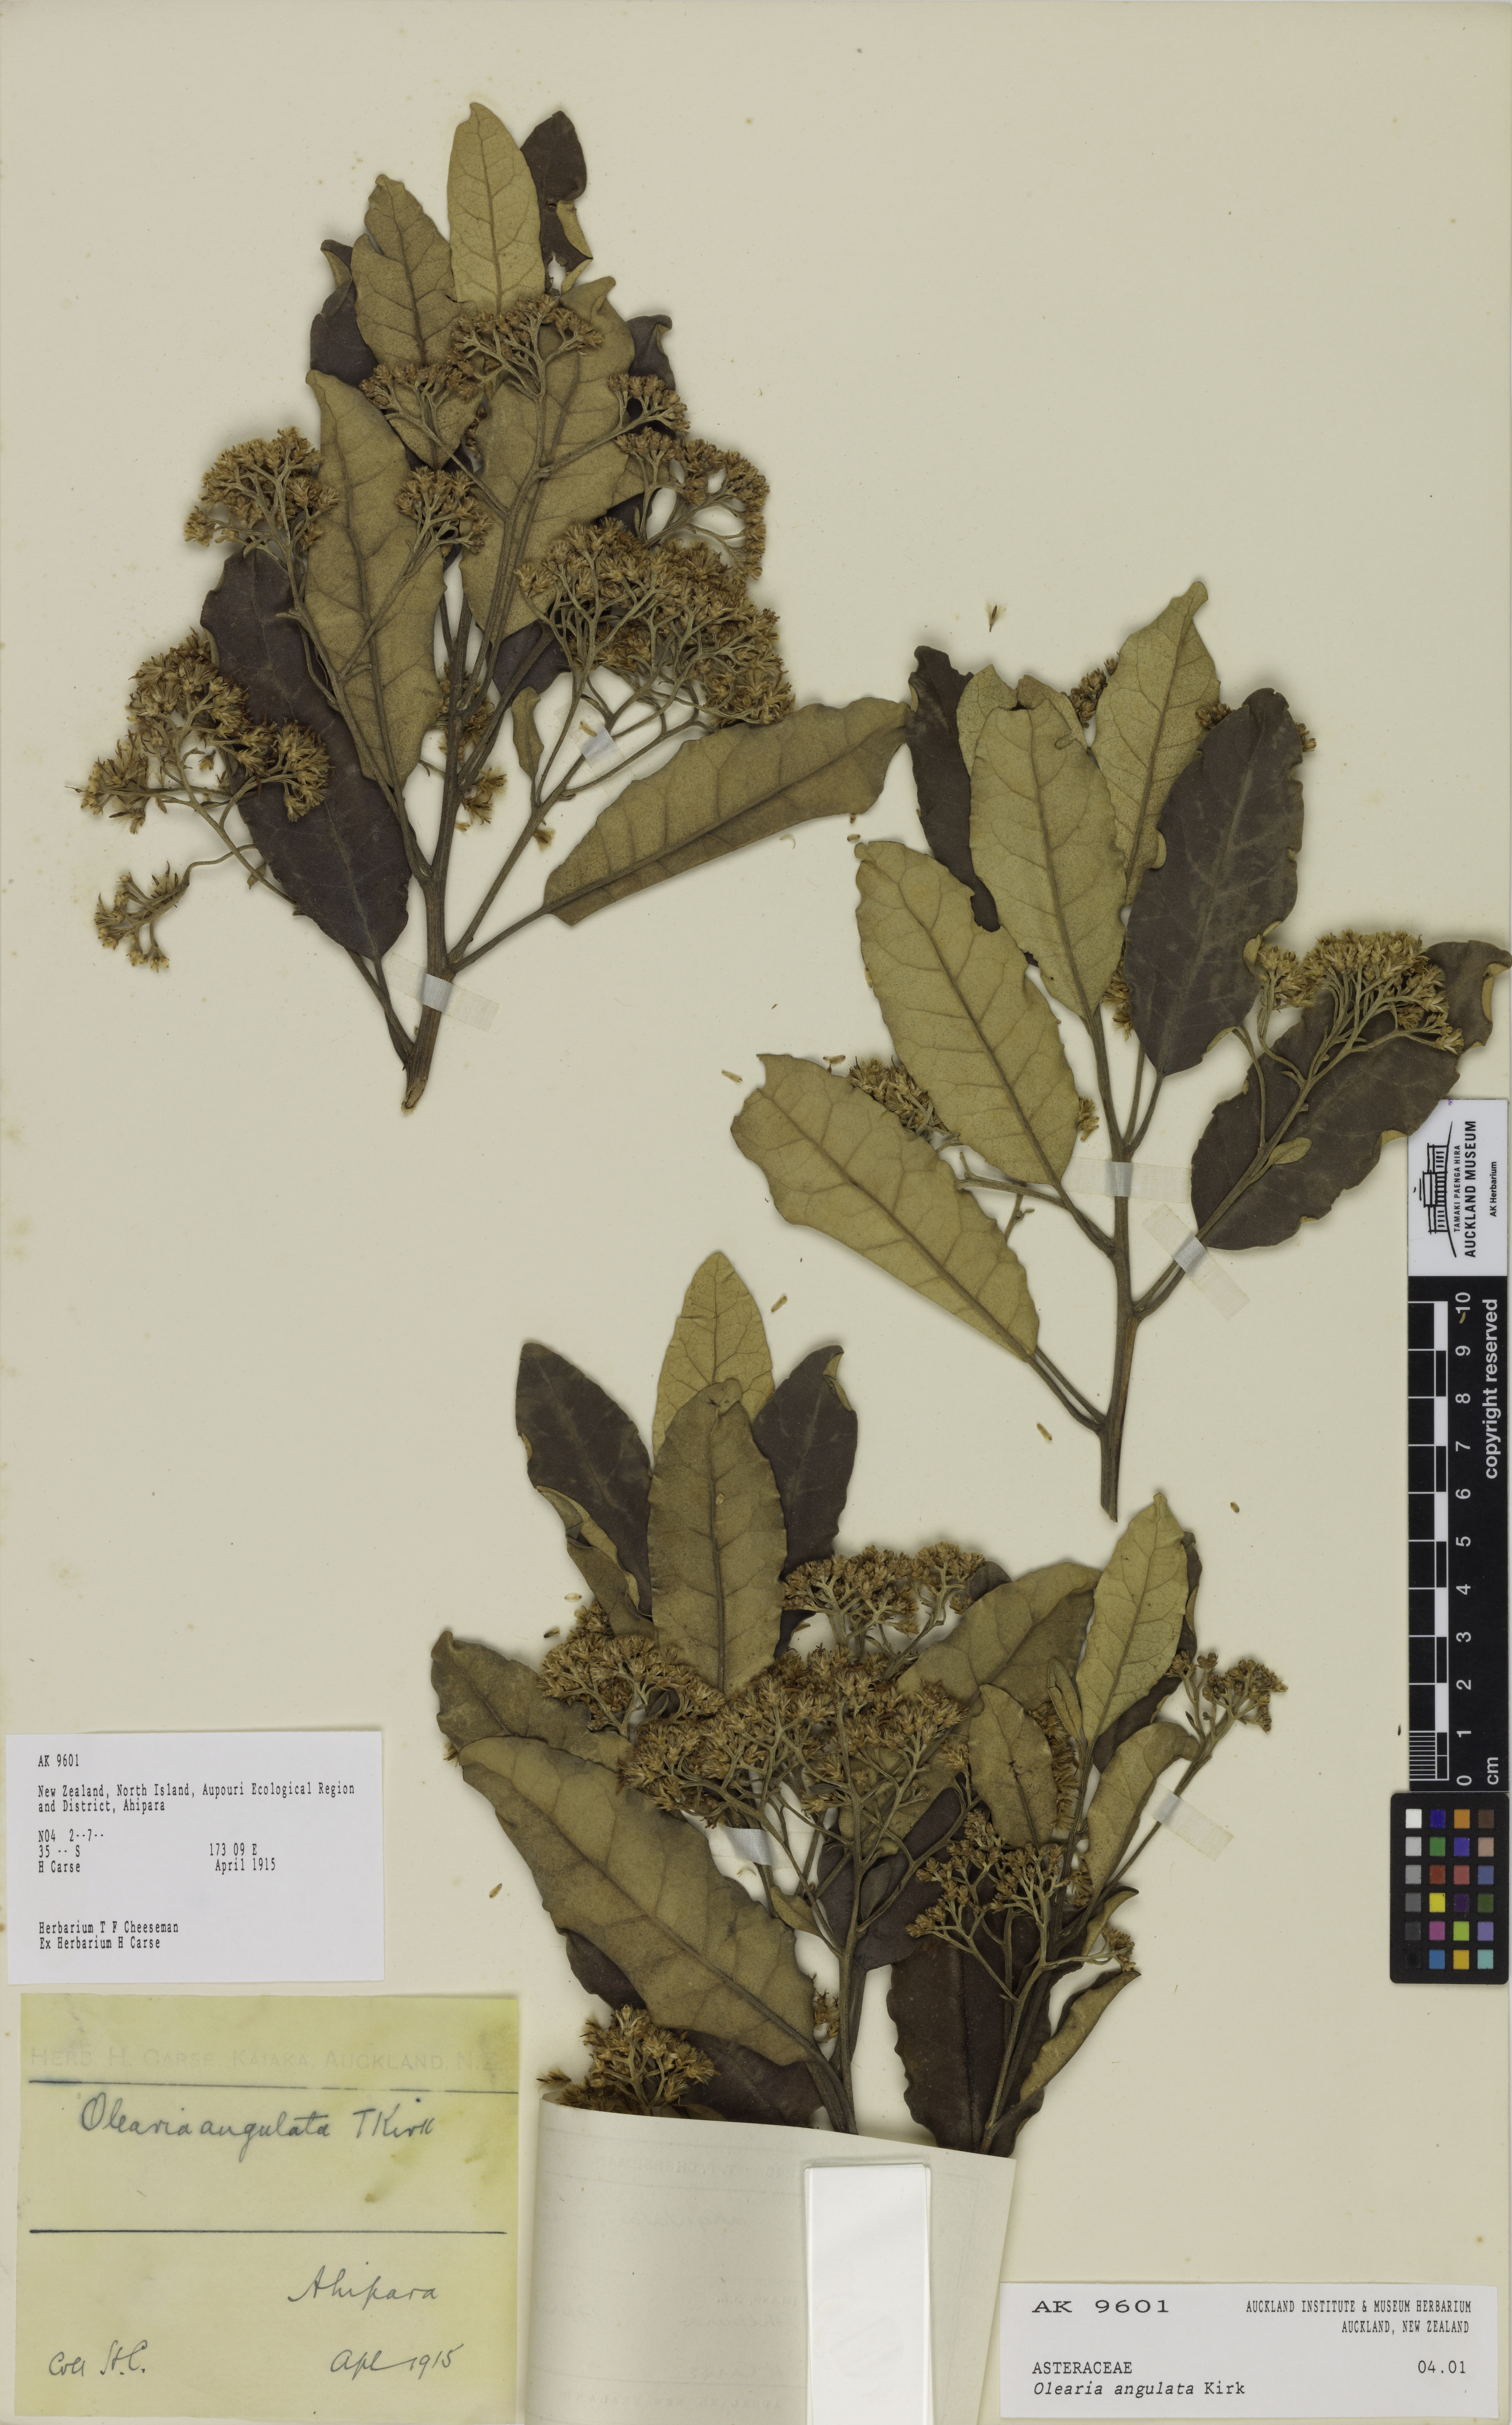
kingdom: Plantae
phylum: Tracheophyta
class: Magnoliopsida
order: Asterales
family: Asteraceae
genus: Olearia
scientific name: Olearia angulata
